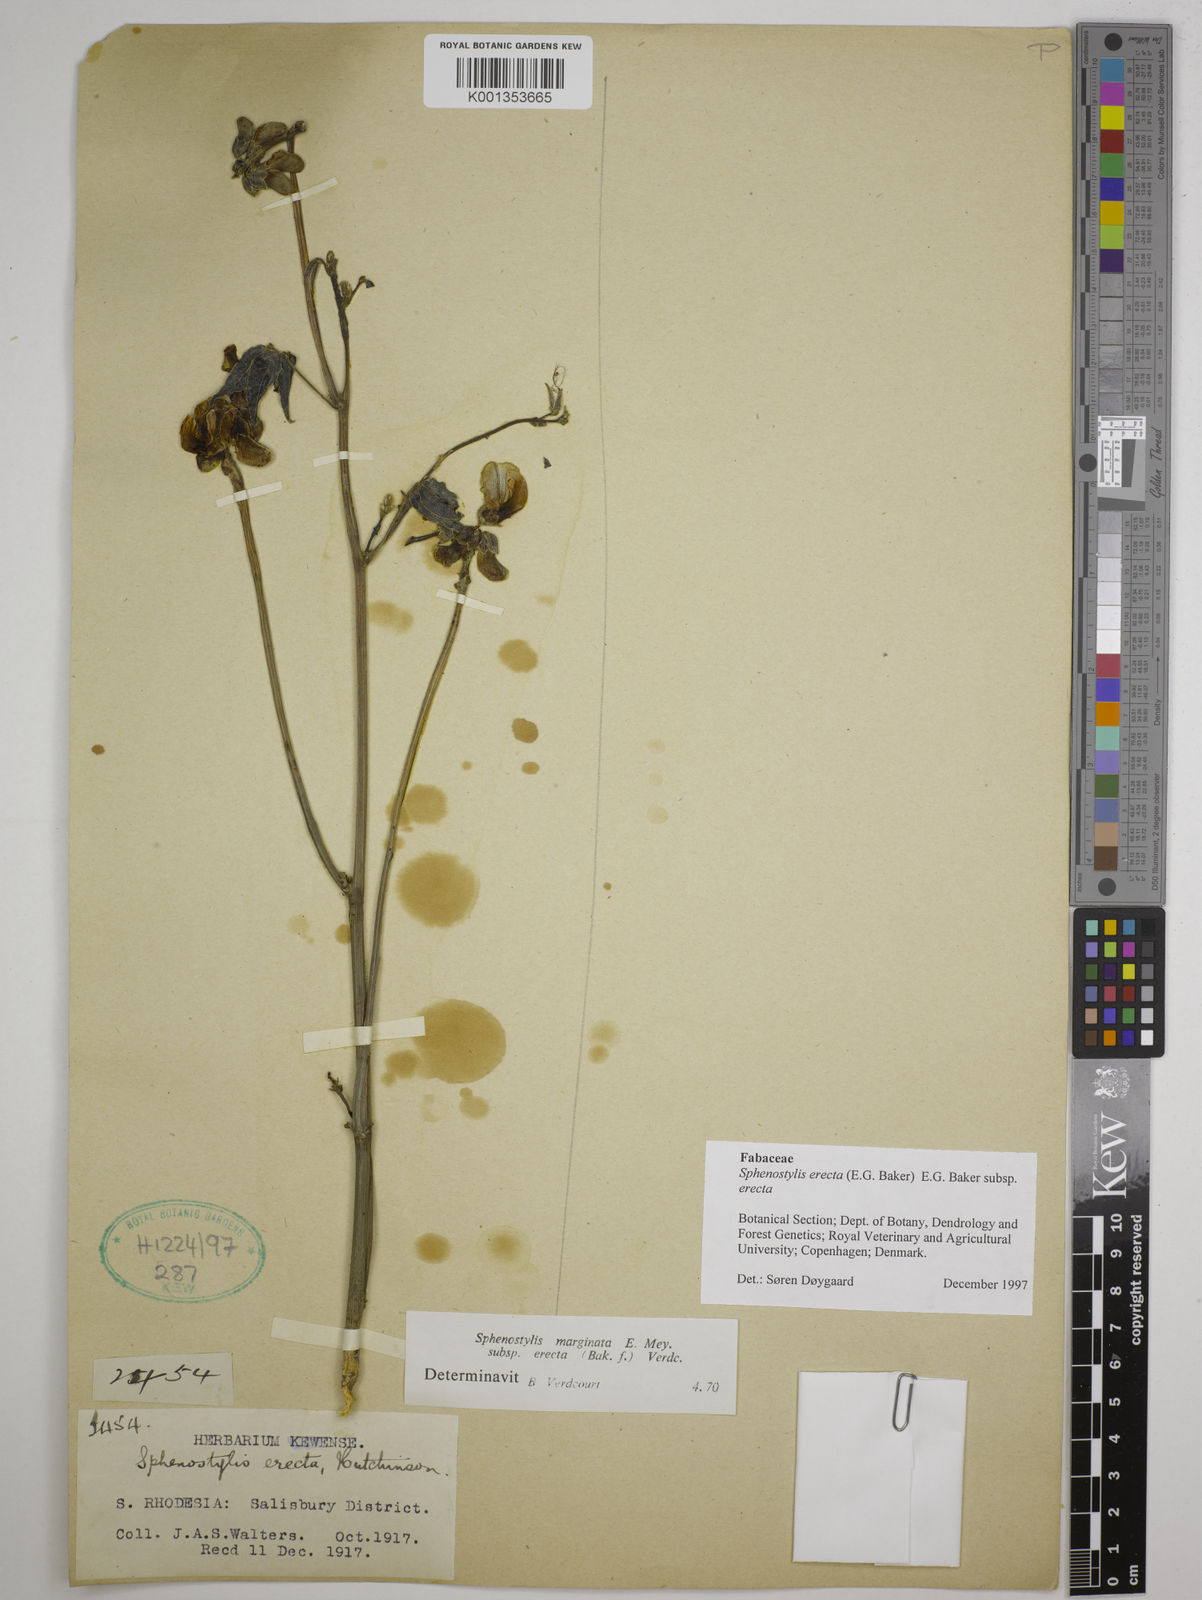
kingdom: Plantae
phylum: Tracheophyta
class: Magnoliopsida
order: Fabales
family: Fabaceae
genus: Sphenostylis
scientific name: Sphenostylis erecta
